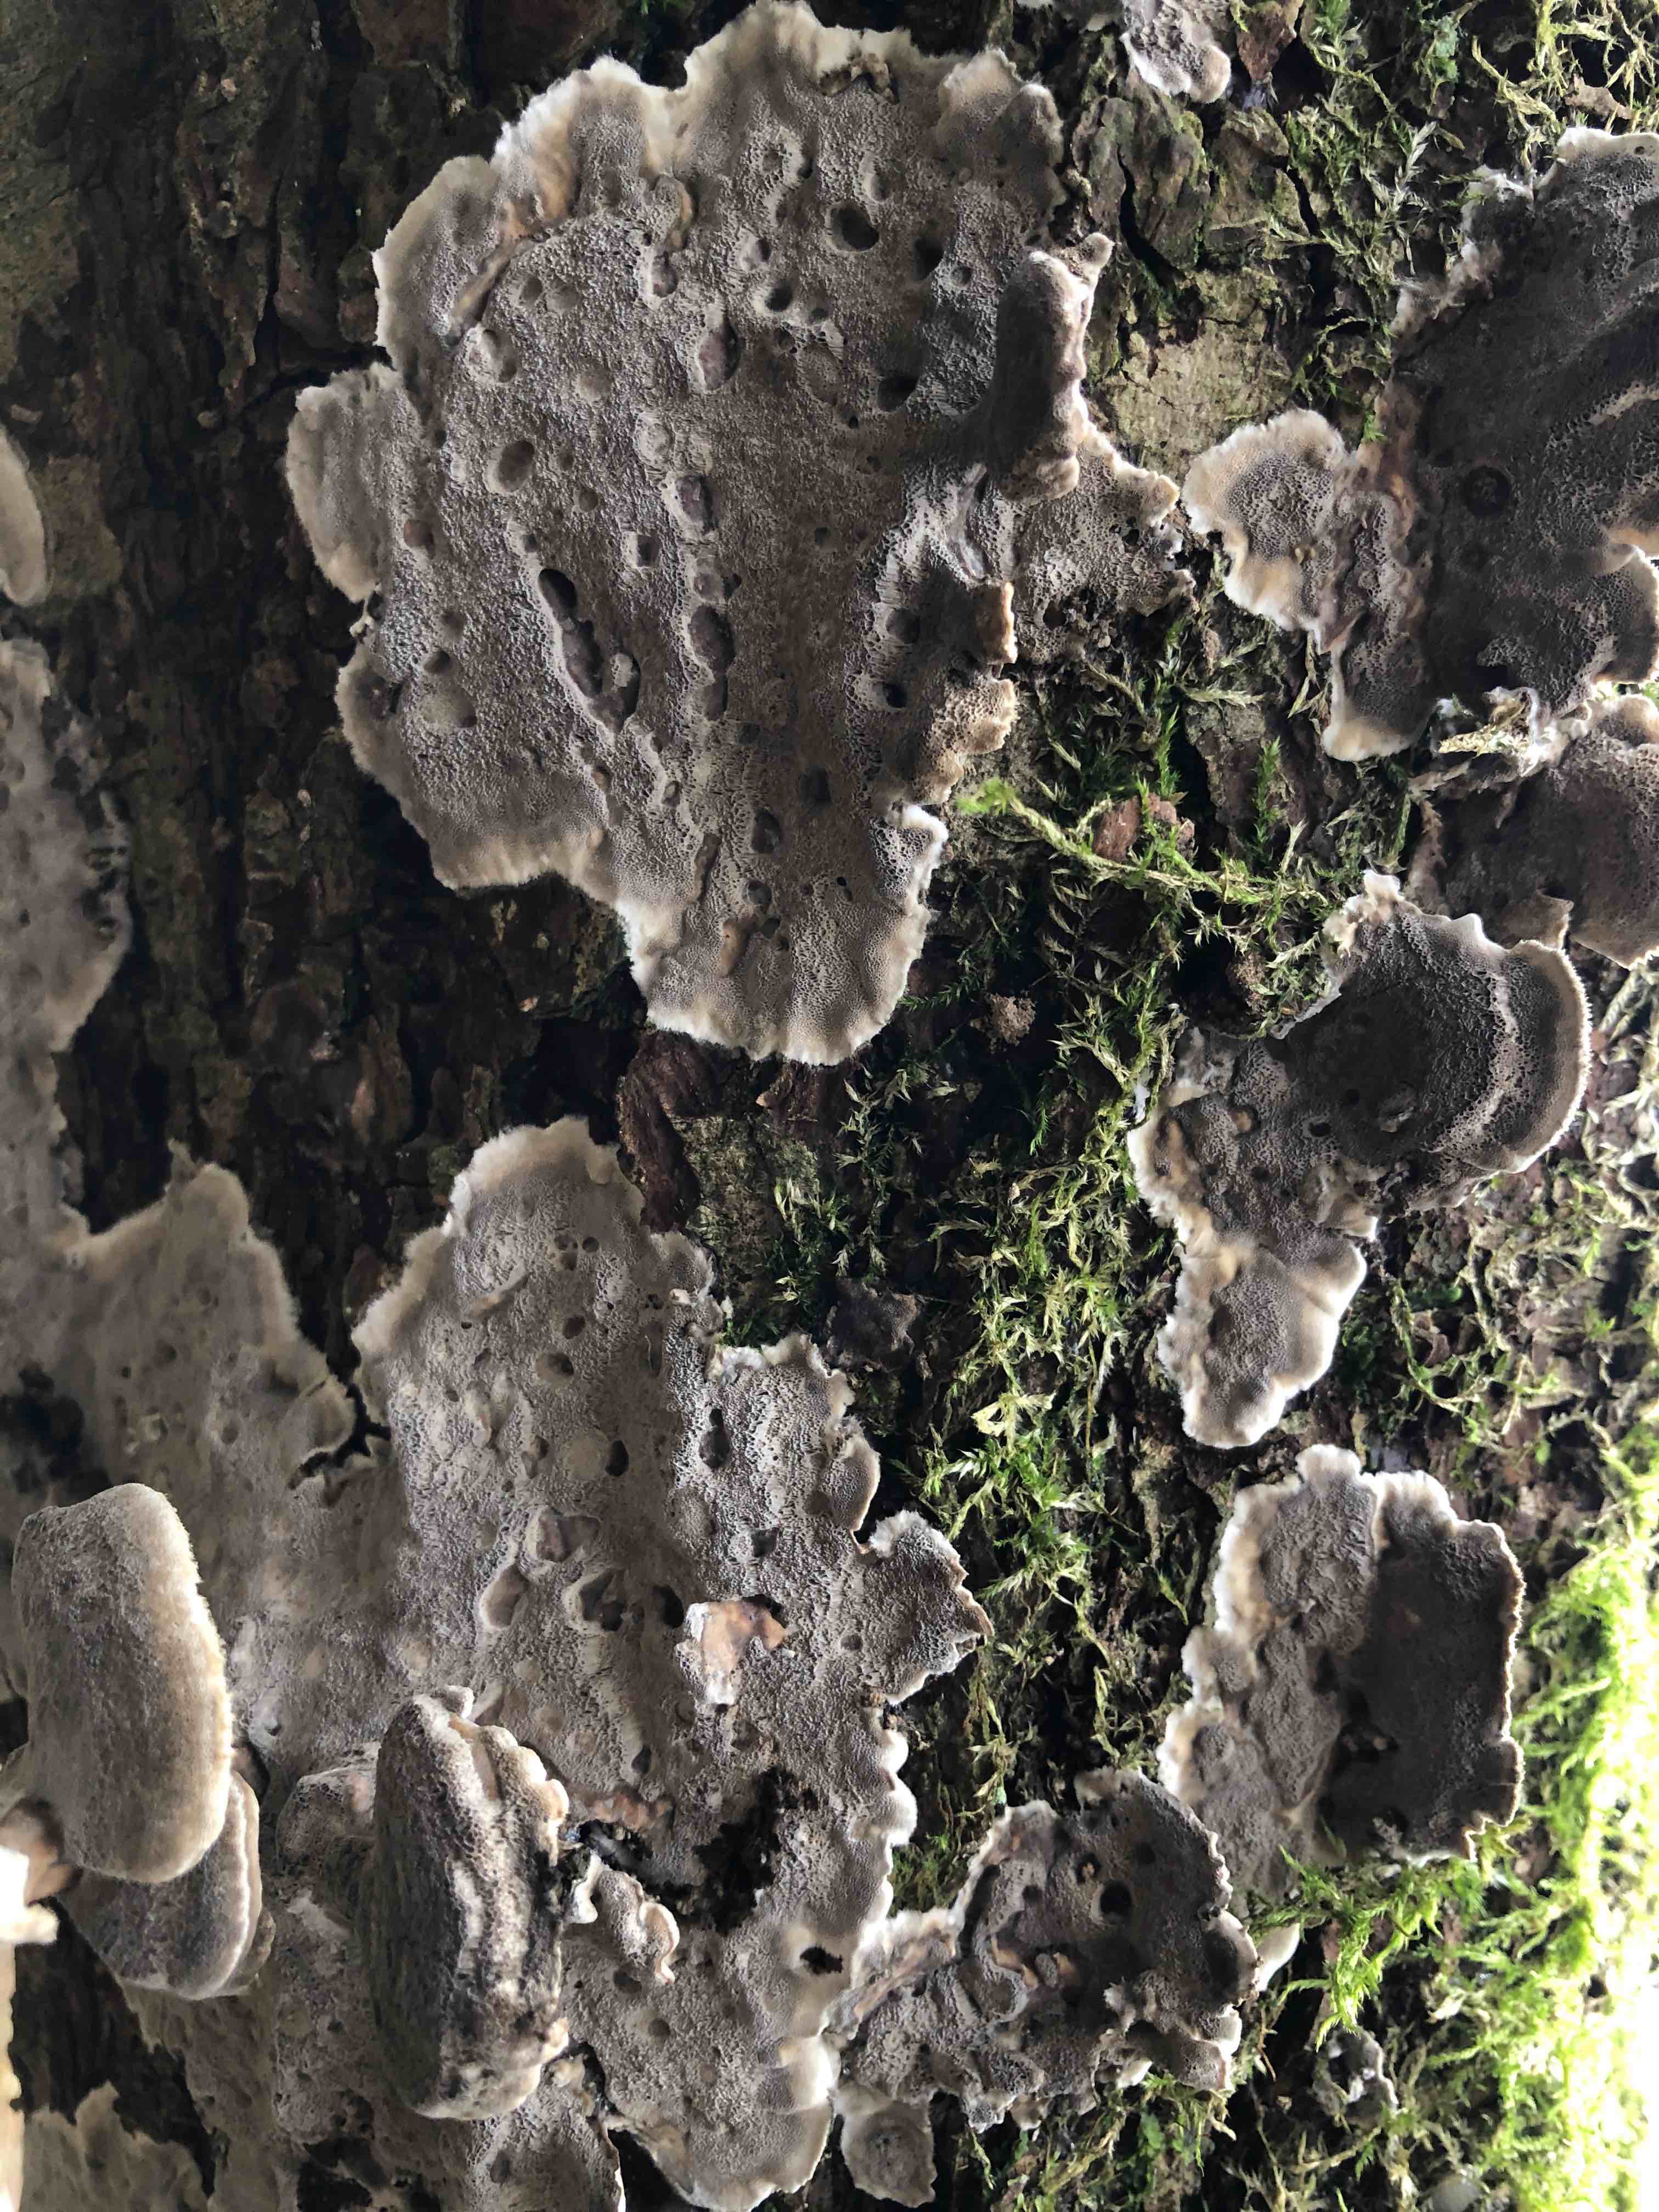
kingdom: Fungi
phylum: Basidiomycota
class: Agaricomycetes
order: Polyporales
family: Phanerochaetaceae
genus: Bjerkandera
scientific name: Bjerkandera adusta
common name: sveden sodporesvamp
